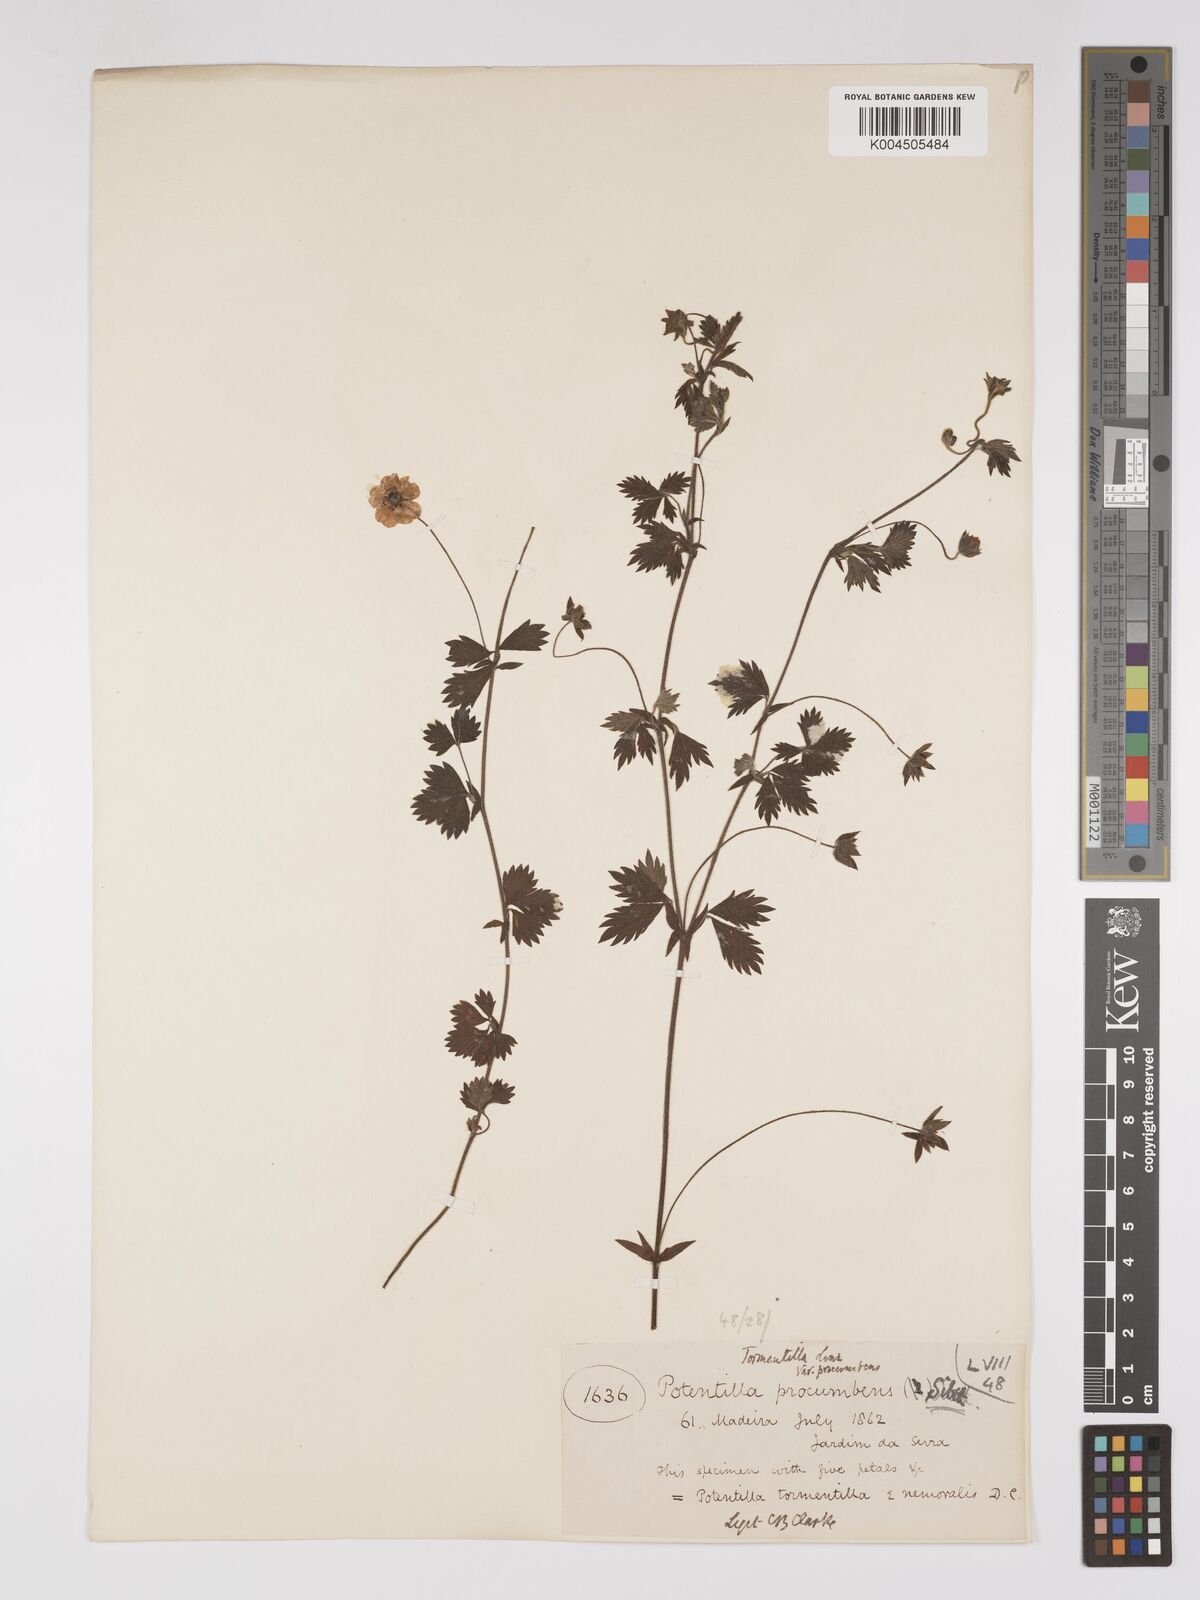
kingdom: Plantae
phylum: Tracheophyta
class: Magnoliopsida
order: Rosales
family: Rosaceae
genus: Potentilla
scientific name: Potentilla
